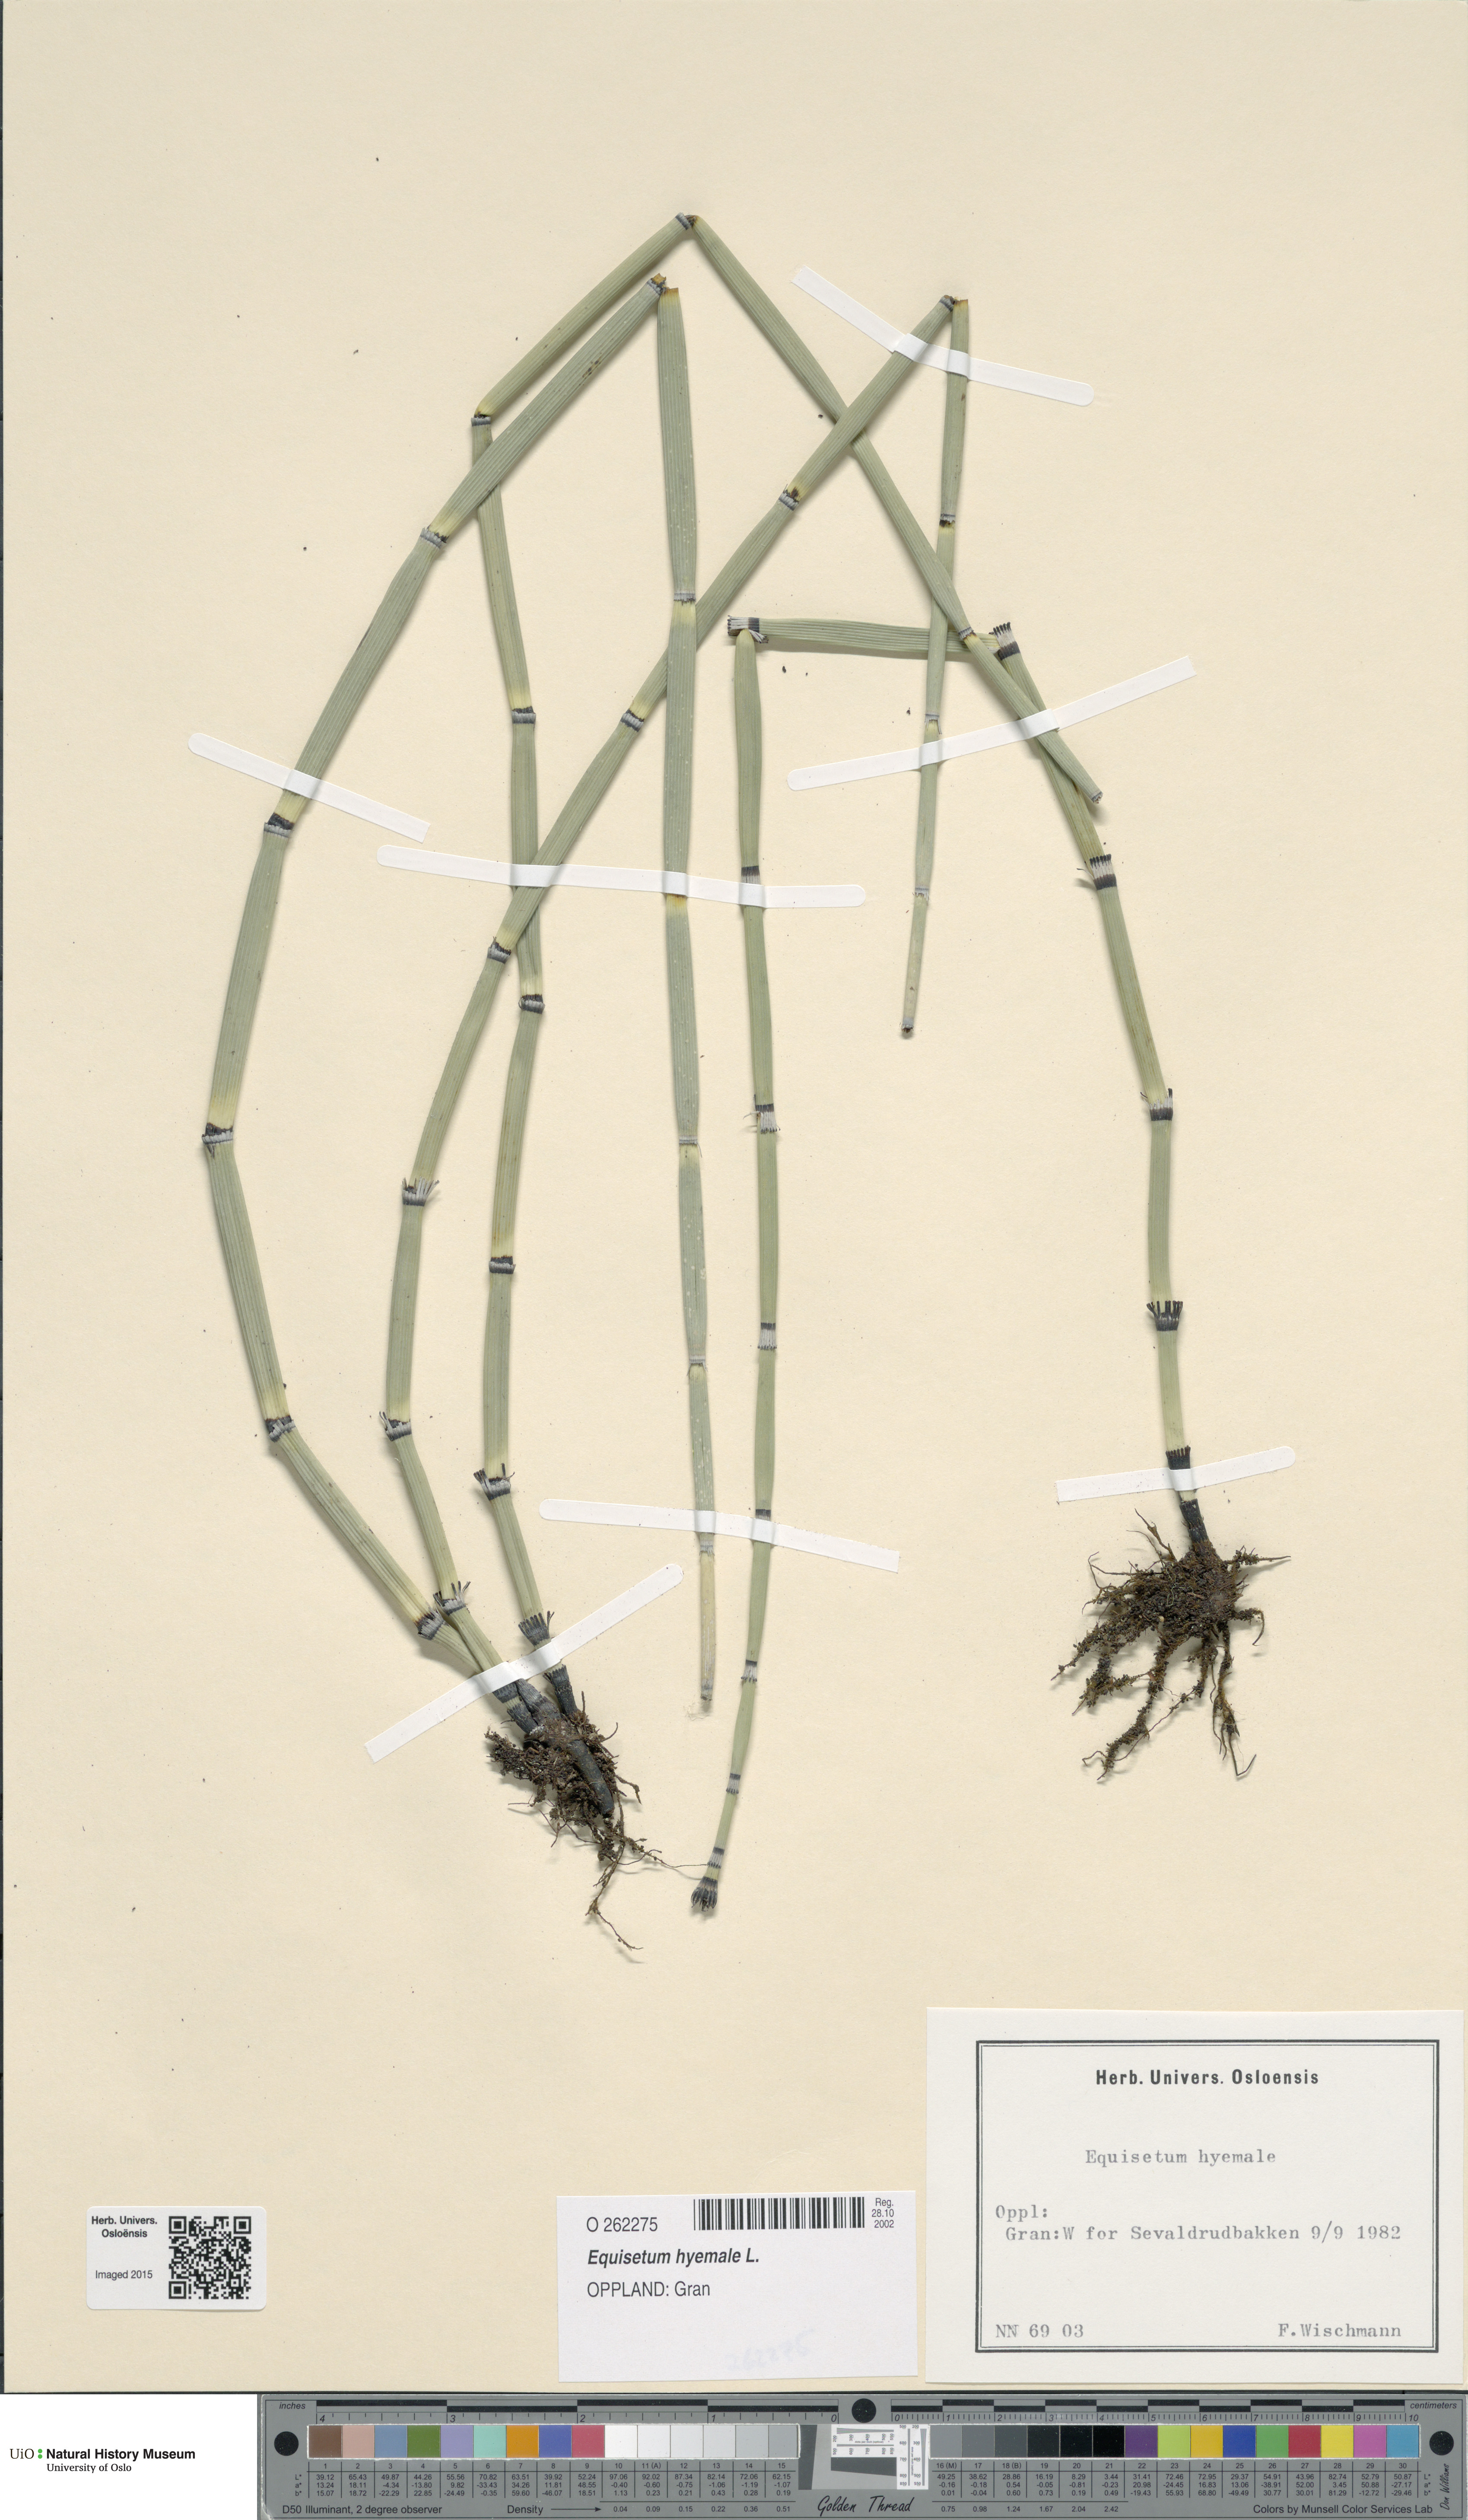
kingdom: Plantae
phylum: Tracheophyta
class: Polypodiopsida
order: Equisetales
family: Equisetaceae
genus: Equisetum
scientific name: Equisetum hyemale
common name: Rough horsetail
